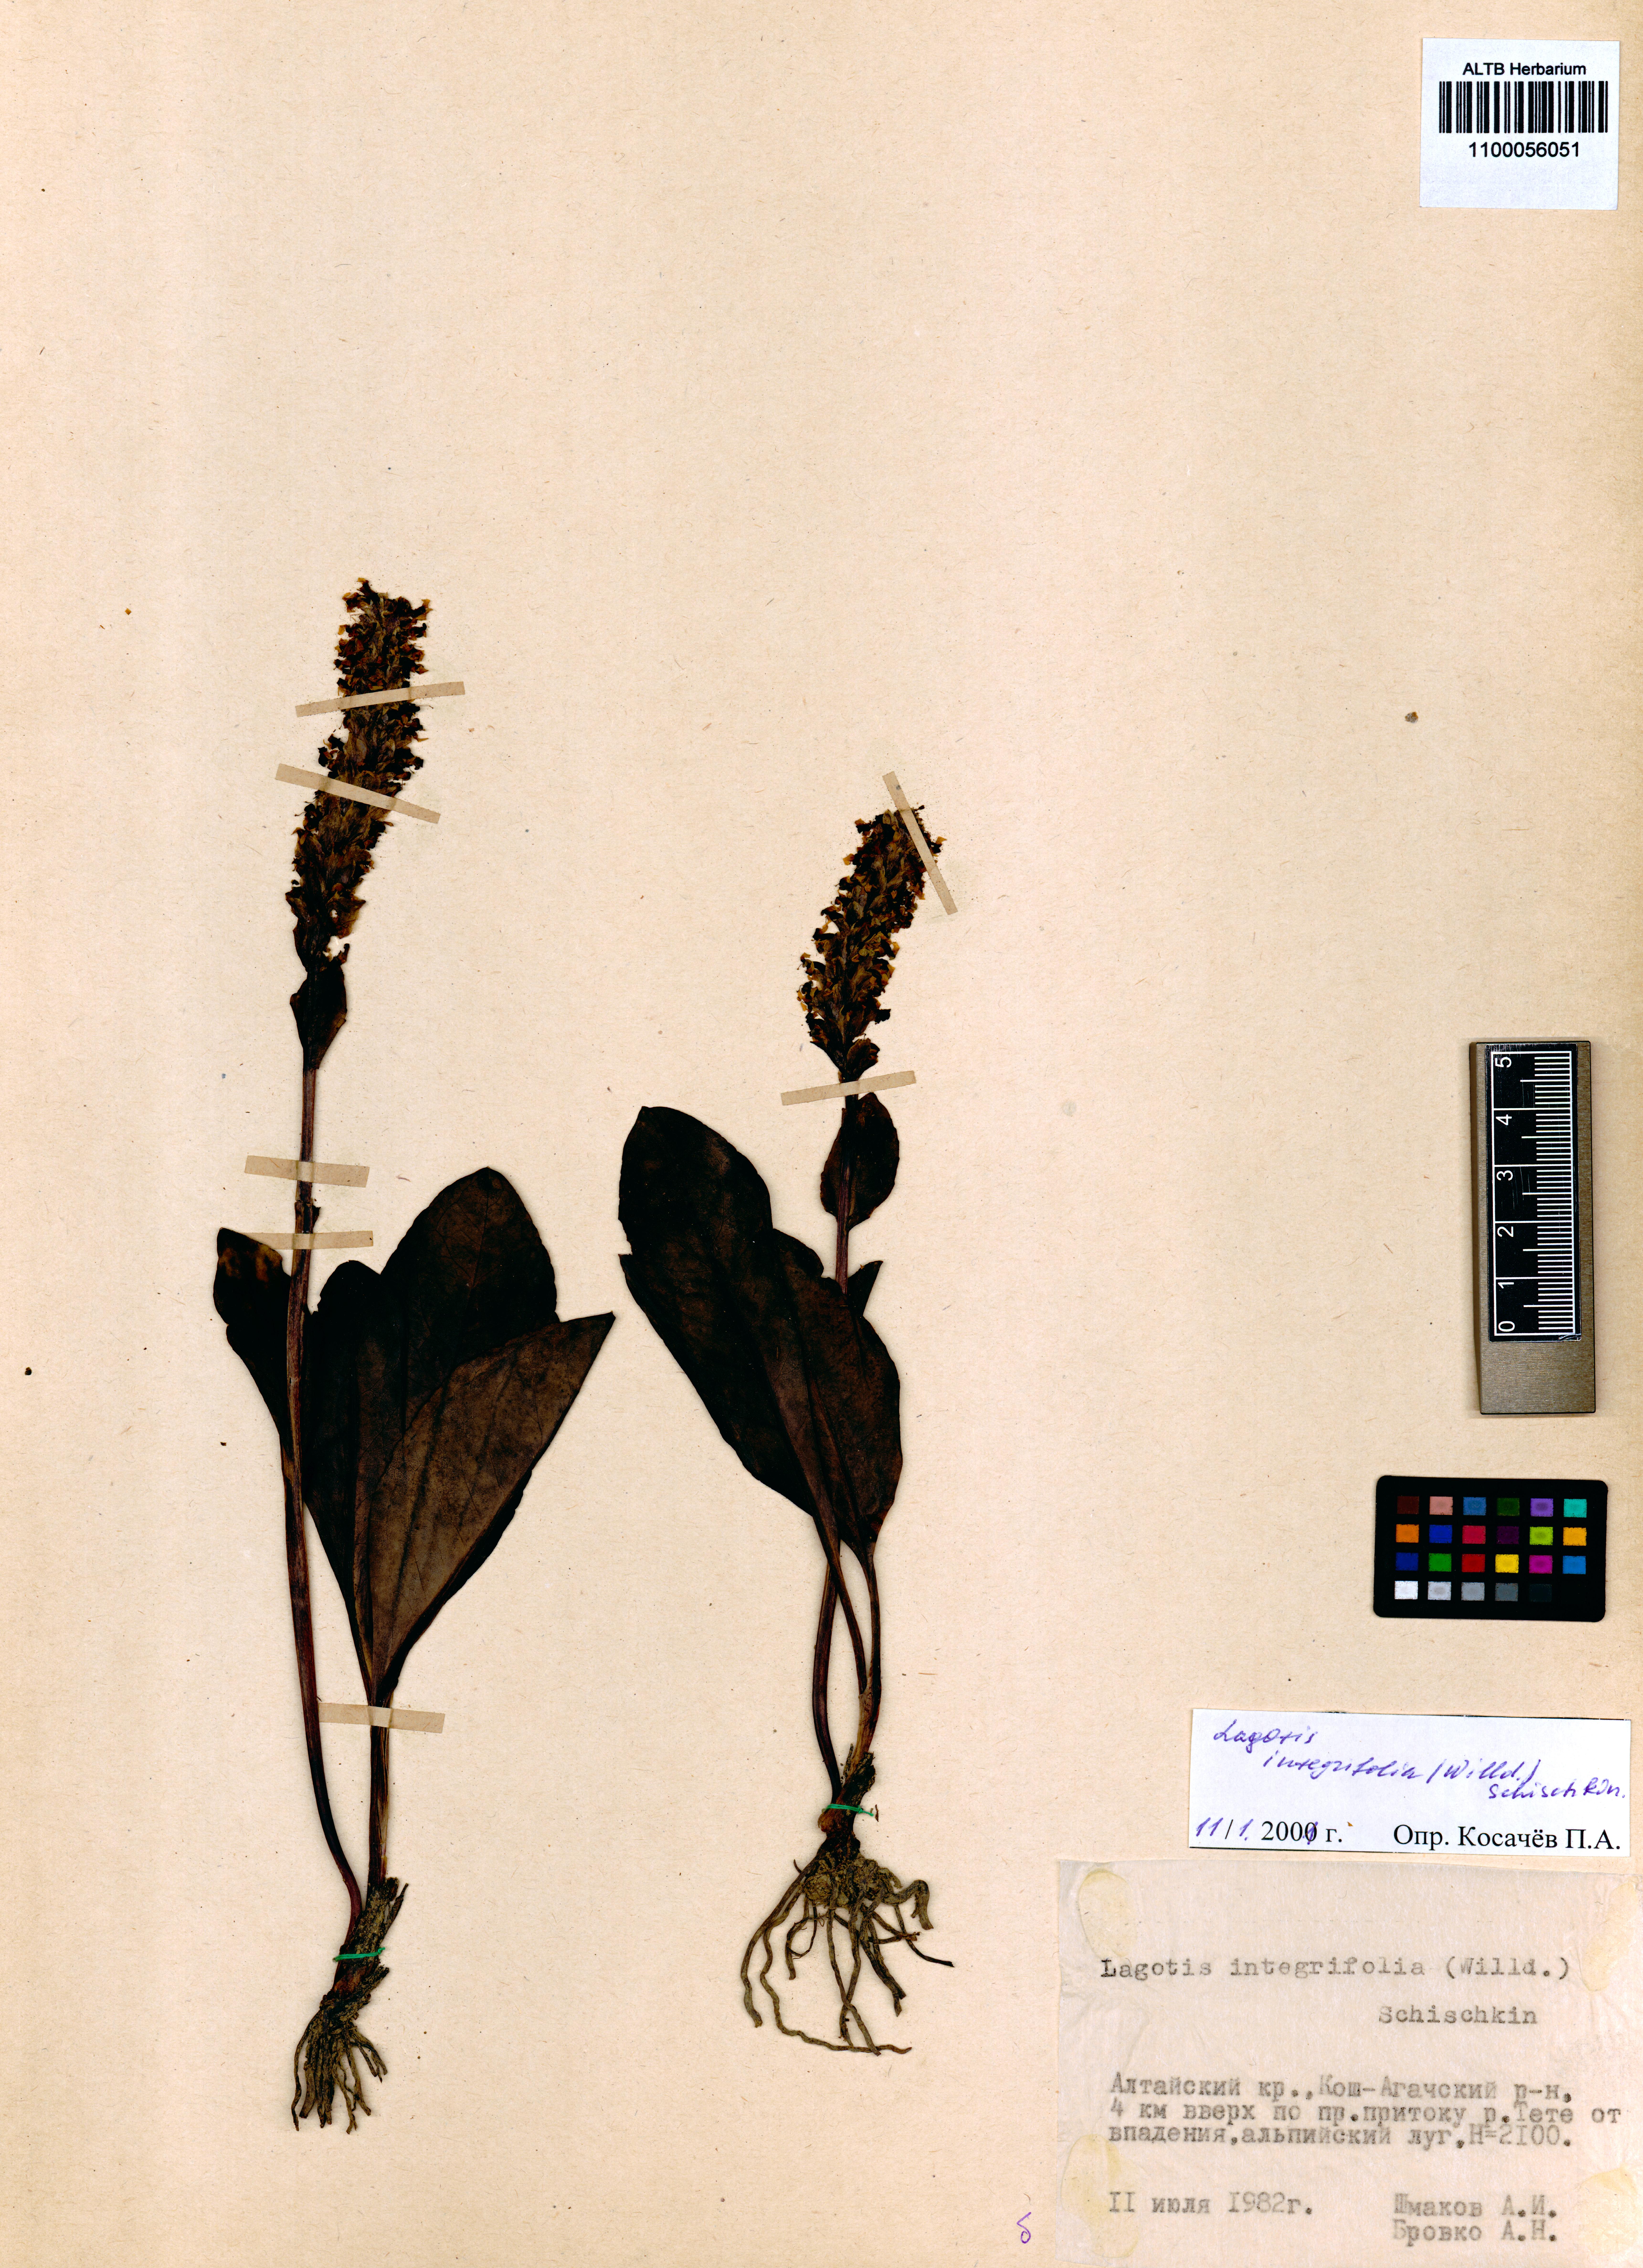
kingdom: Plantae
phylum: Tracheophyta
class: Magnoliopsida
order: Lamiales
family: Plantaginaceae
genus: Lagotis
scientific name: Lagotis integrifolia
